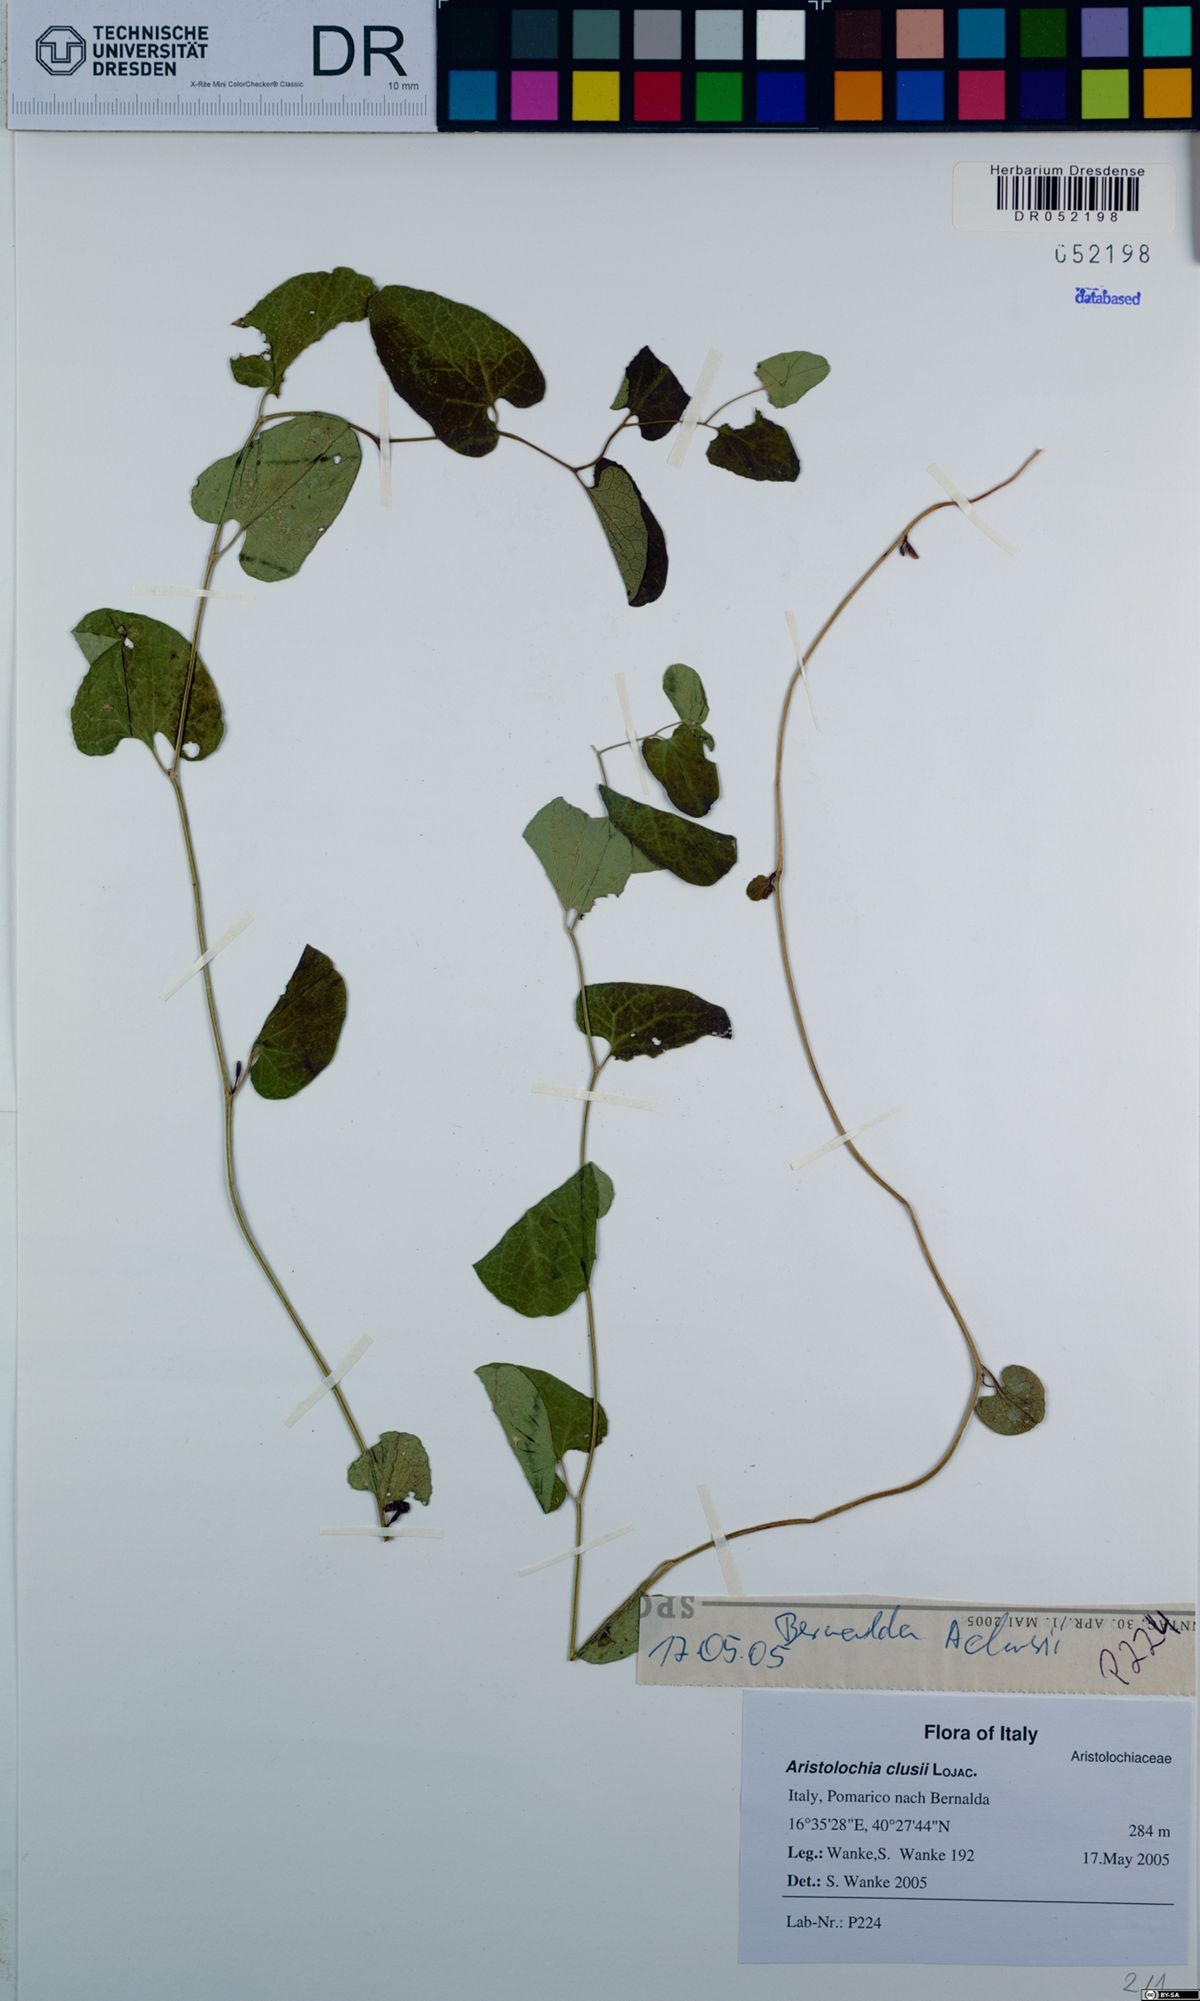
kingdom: Plantae
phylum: Tracheophyta
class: Magnoliopsida
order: Piperales
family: Aristolochiaceae
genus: Aristolochia
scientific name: Aristolochia clusii
